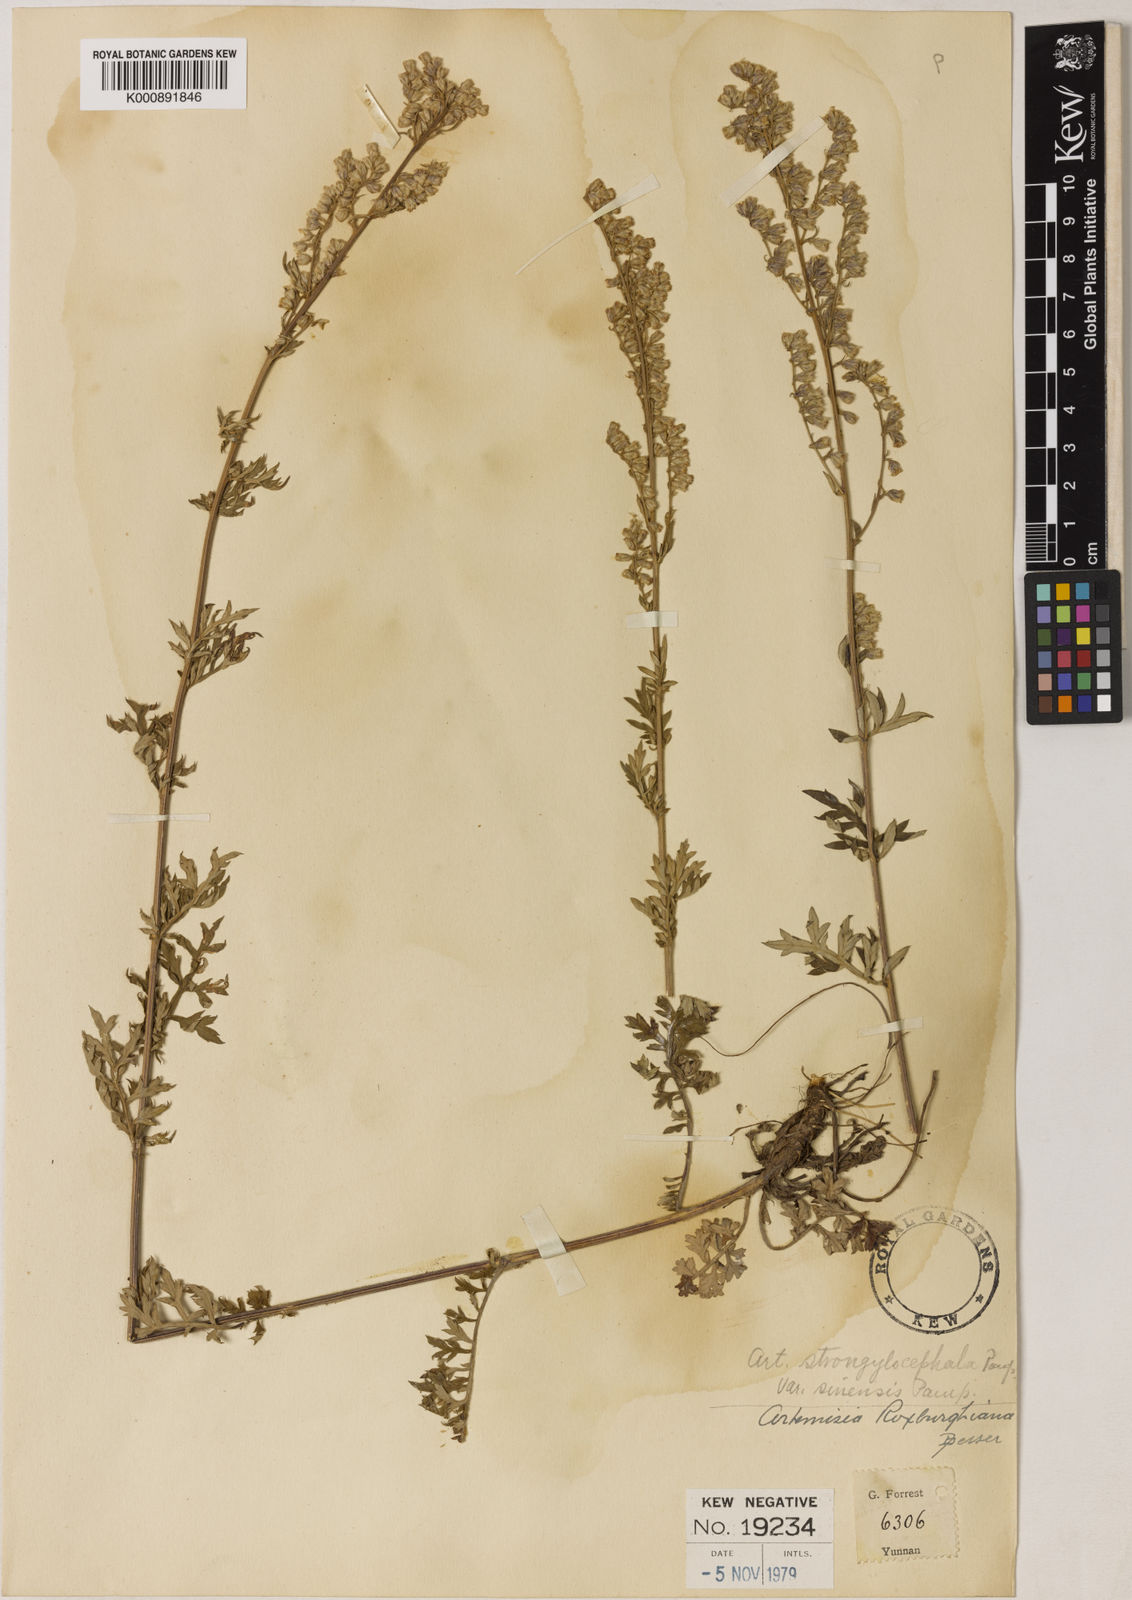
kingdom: Plantae
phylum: Tracheophyta
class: Magnoliopsida
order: Asterales
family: Asteraceae
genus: Artemisia
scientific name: Artemisia sinensis
